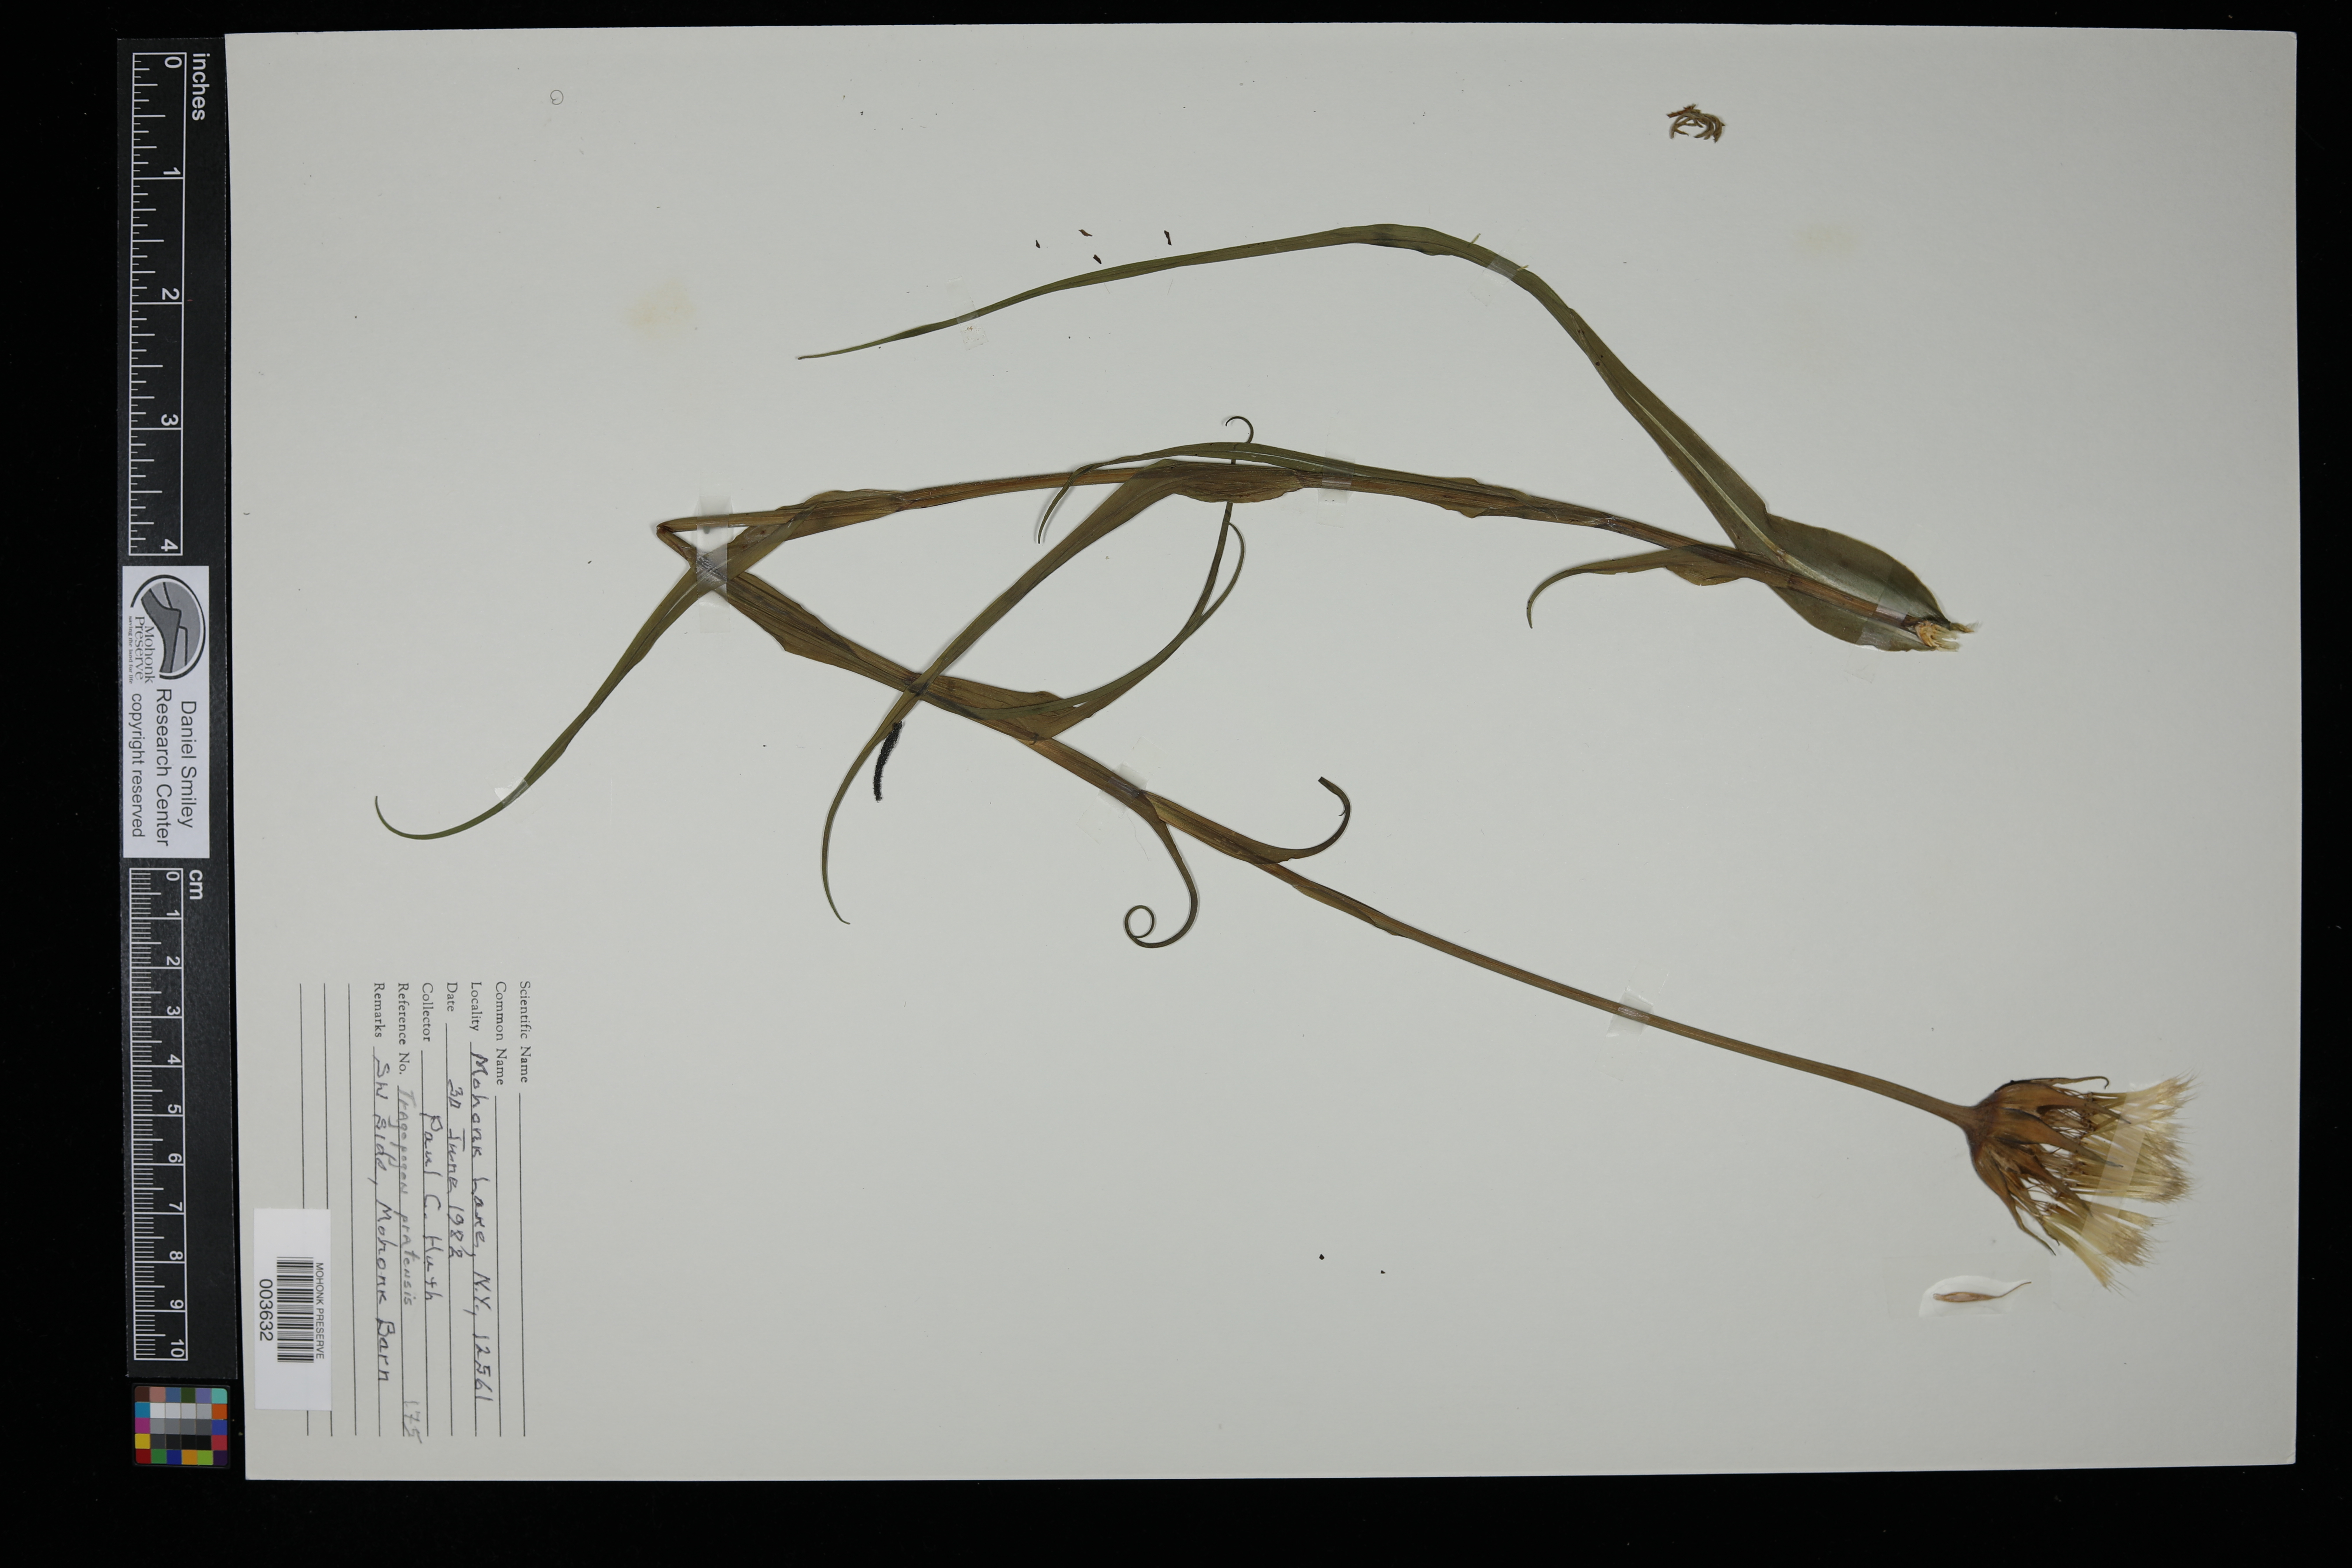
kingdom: Plantae
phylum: Tracheophyta
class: Magnoliopsida
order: Asterales
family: Asteraceae
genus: Tragopogon
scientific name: Tragopogon pratensis
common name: Goat's-beard
